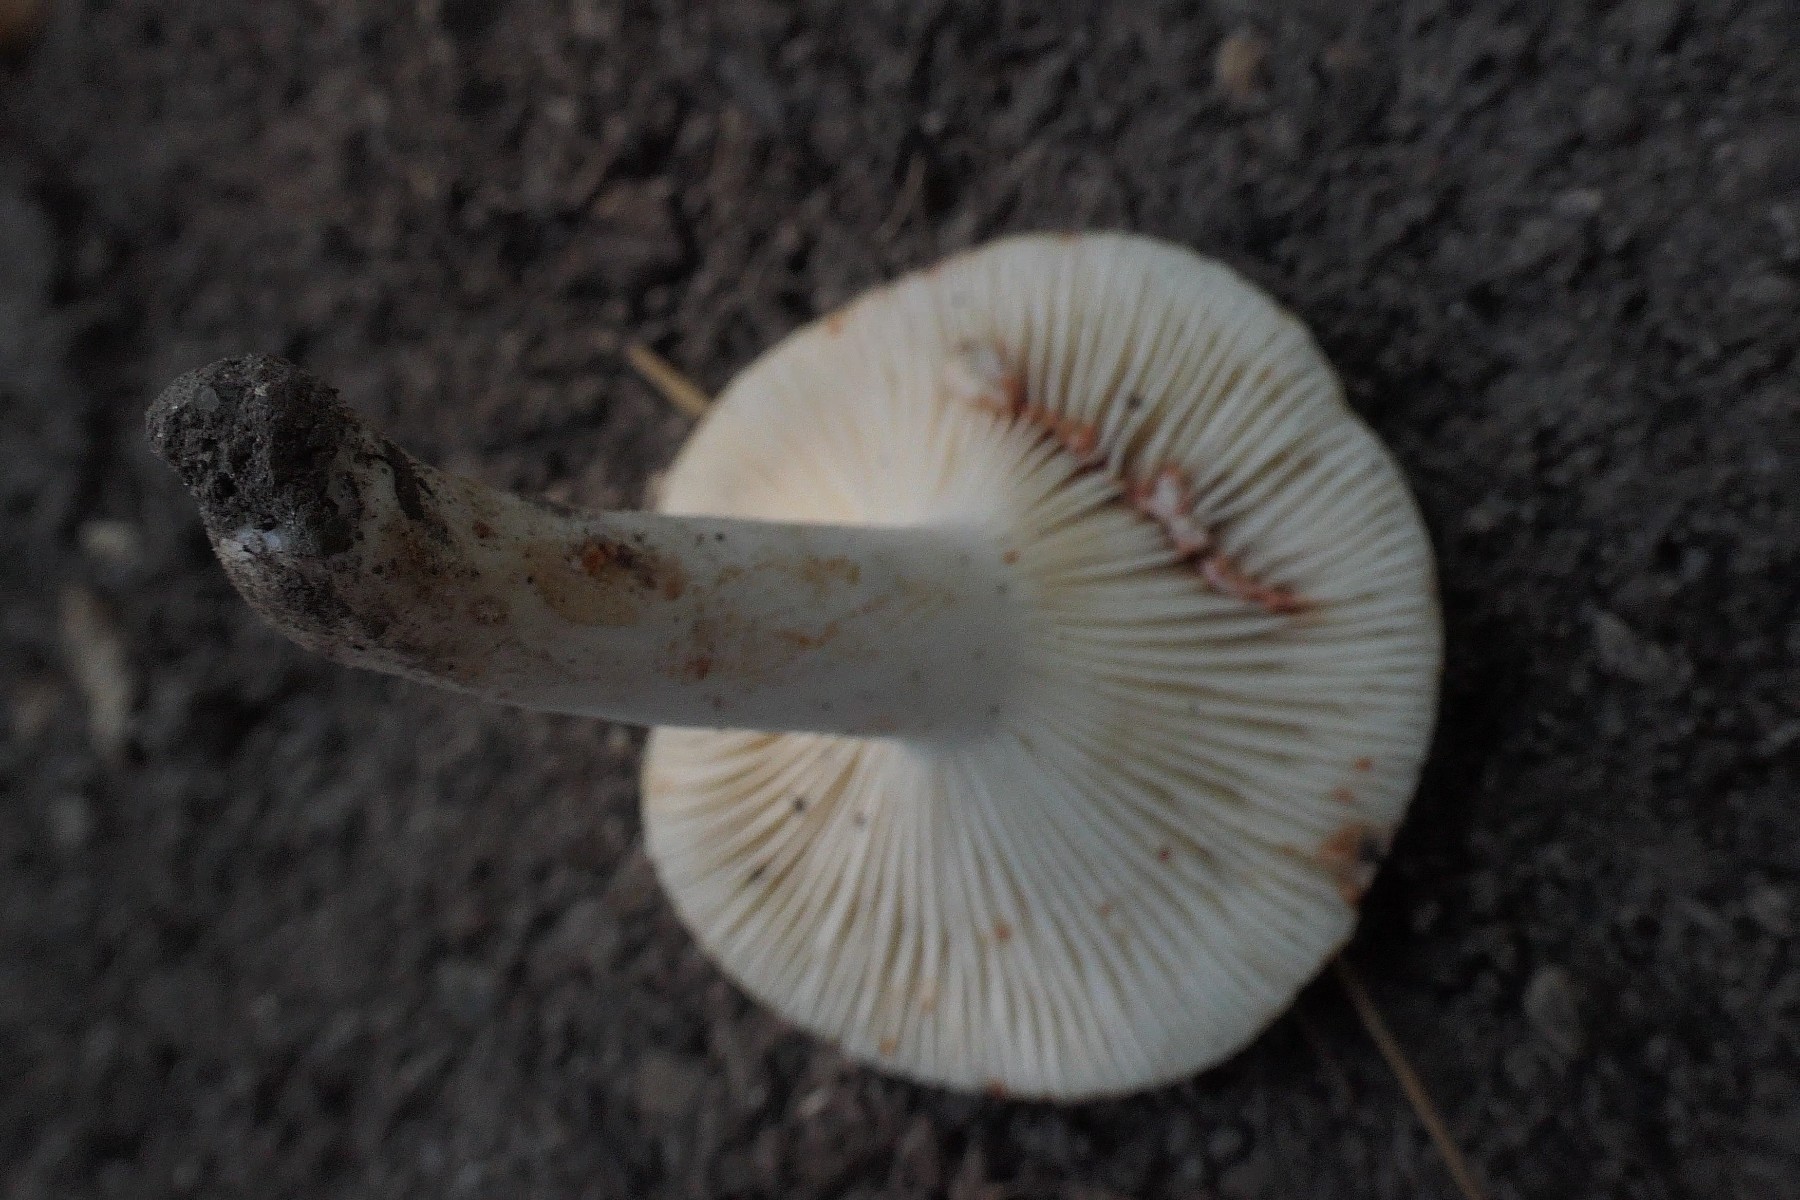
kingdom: Fungi
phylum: Basidiomycota
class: Agaricomycetes
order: Russulales
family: Russulaceae
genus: Lactarius
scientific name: Lactarius azonites
